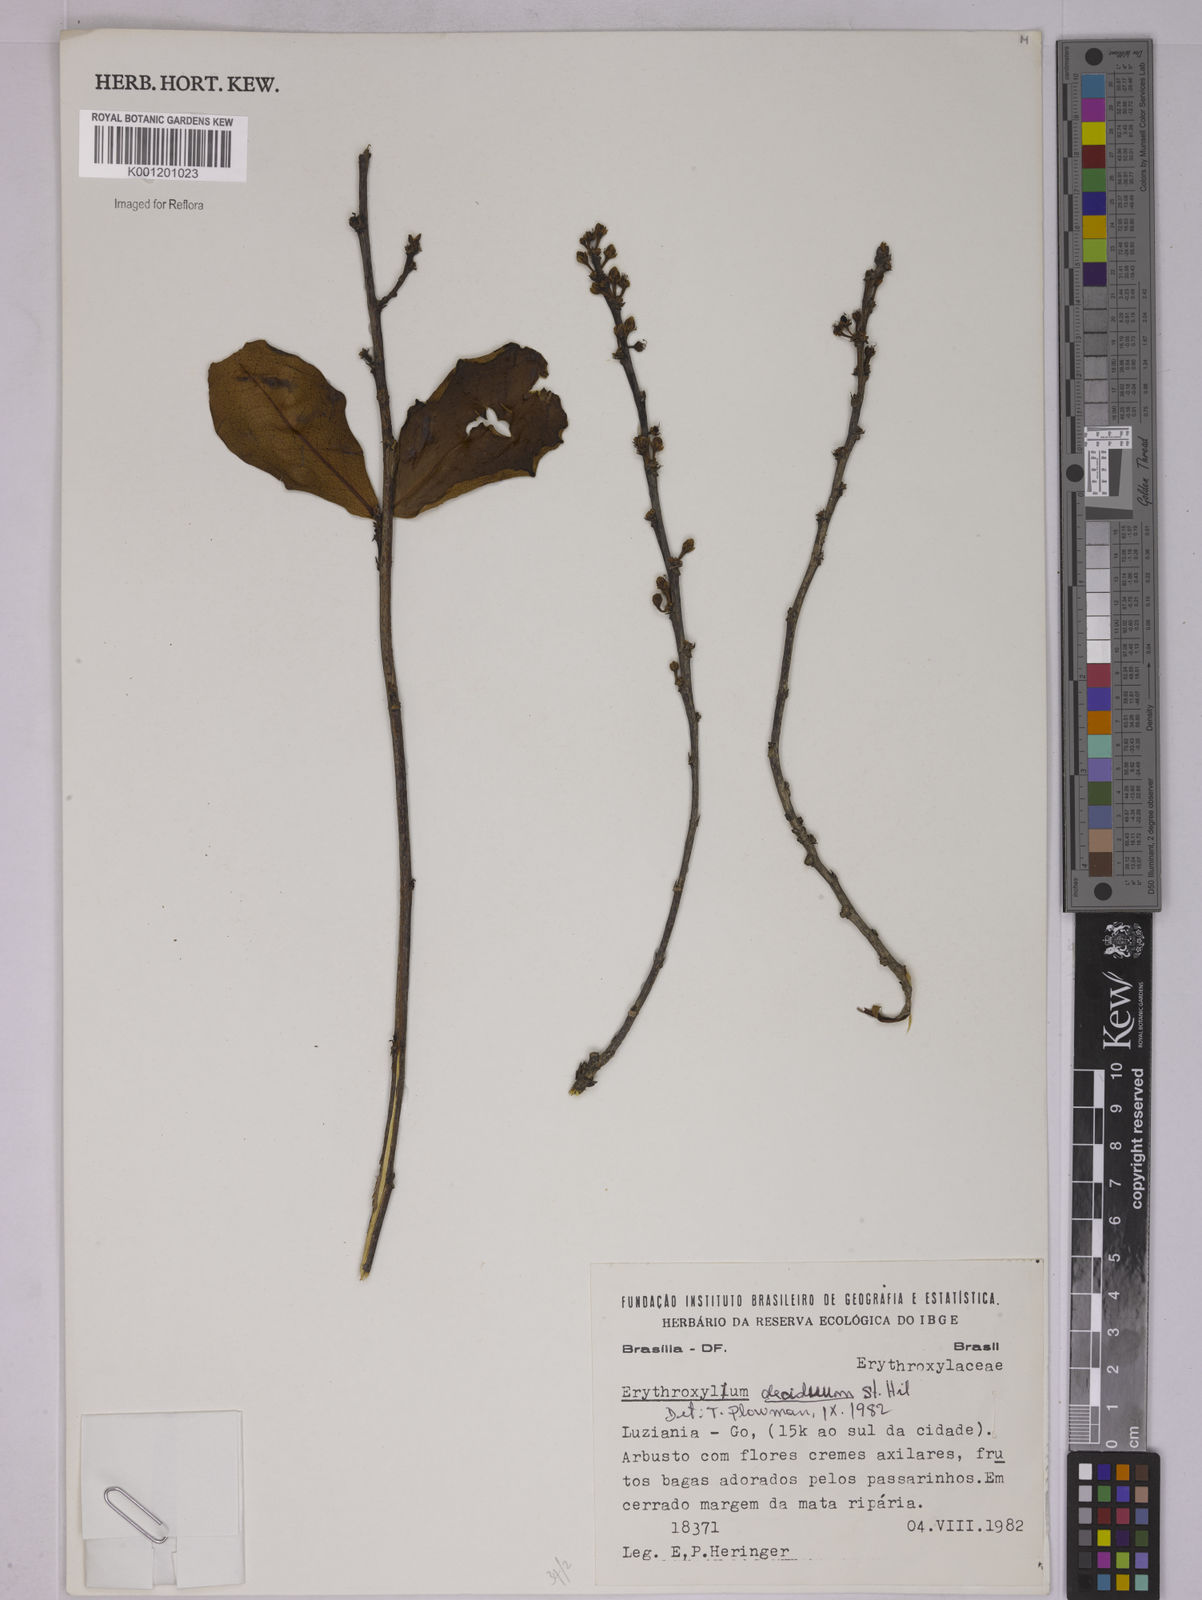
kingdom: Plantae
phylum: Tracheophyta
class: Magnoliopsida
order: Malpighiales
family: Erythroxylaceae
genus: Erythroxylum
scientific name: Erythroxylum deciduum
